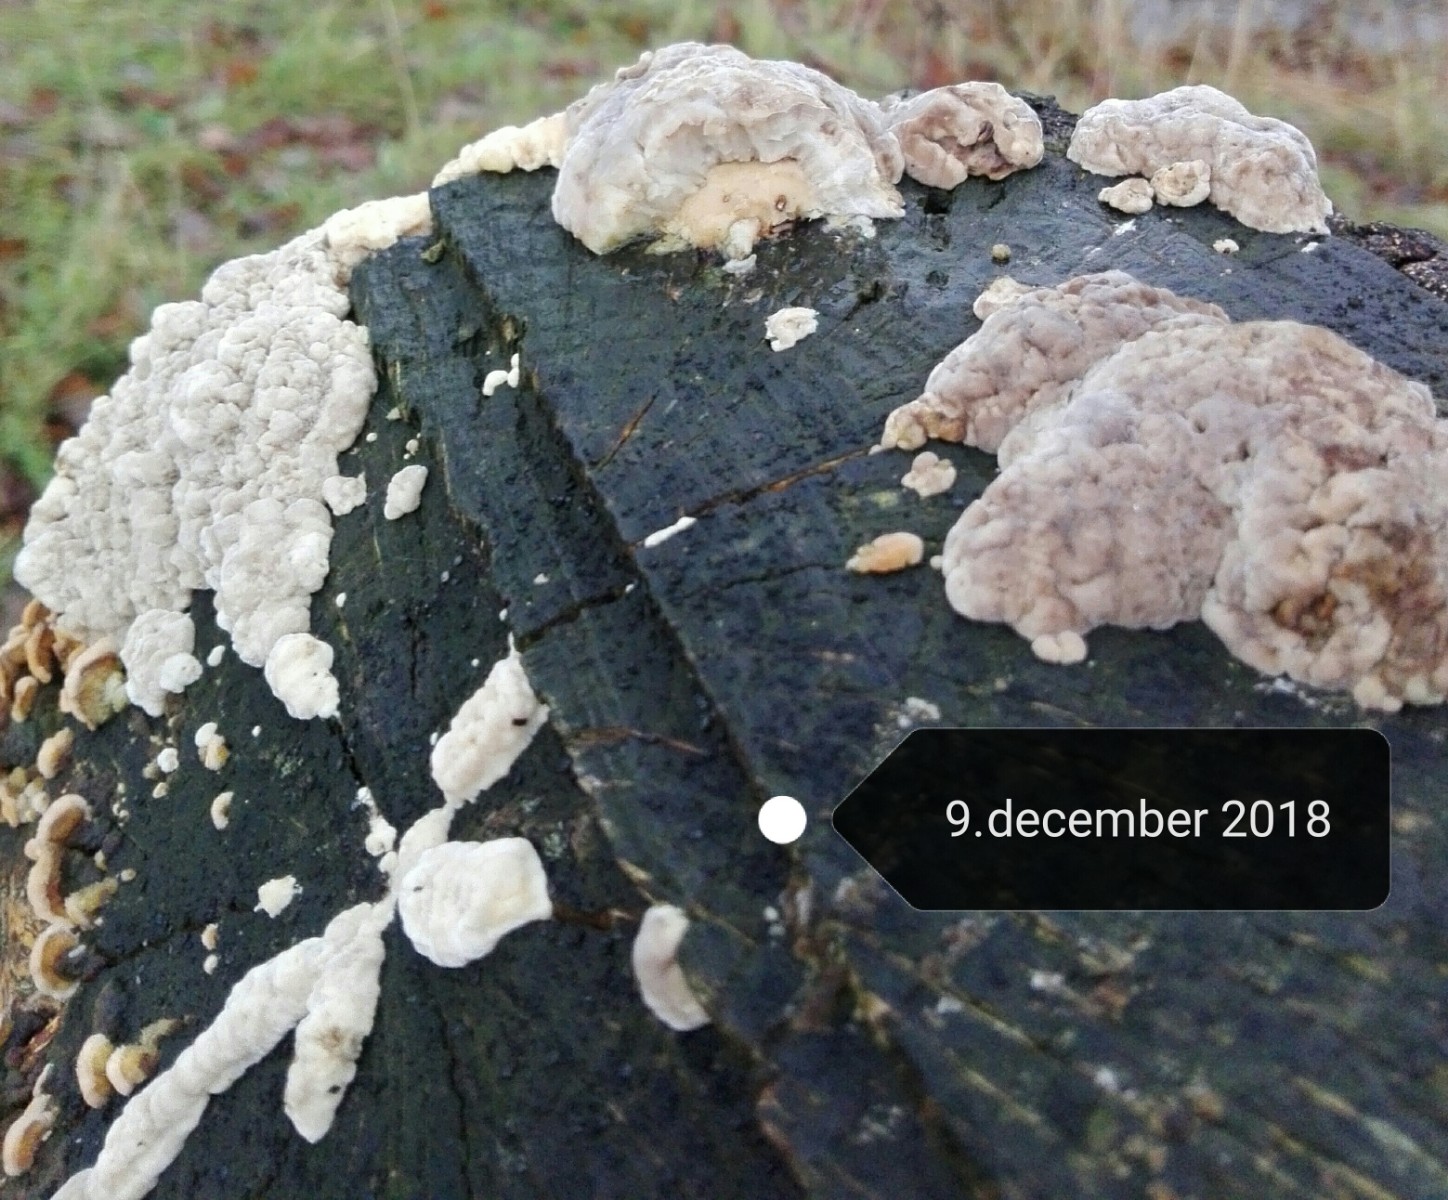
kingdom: Fungi
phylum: Basidiomycota
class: Agaricomycetes
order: Polyporales
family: Polyporaceae
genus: Trametes
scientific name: Trametes
